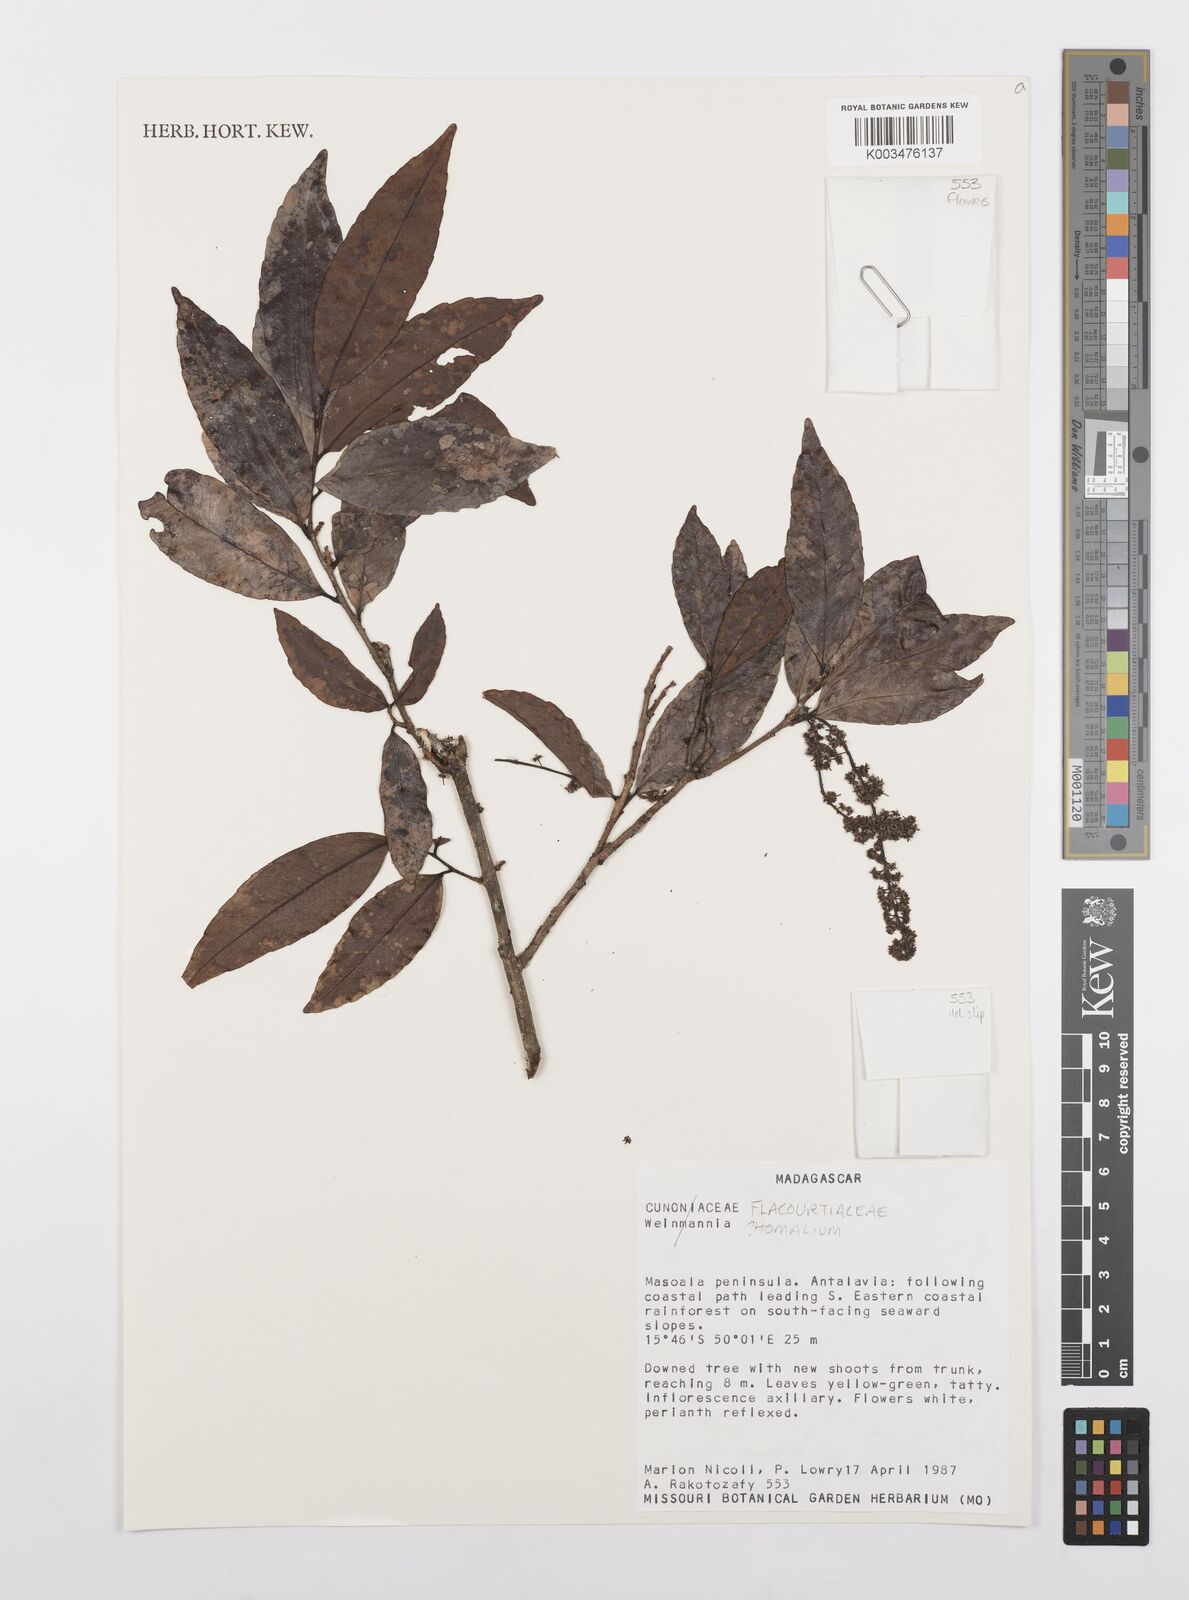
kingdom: Plantae
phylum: Tracheophyta
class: Magnoliopsida
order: Malpighiales
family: Salicaceae
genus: Homalium
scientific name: Homalium
